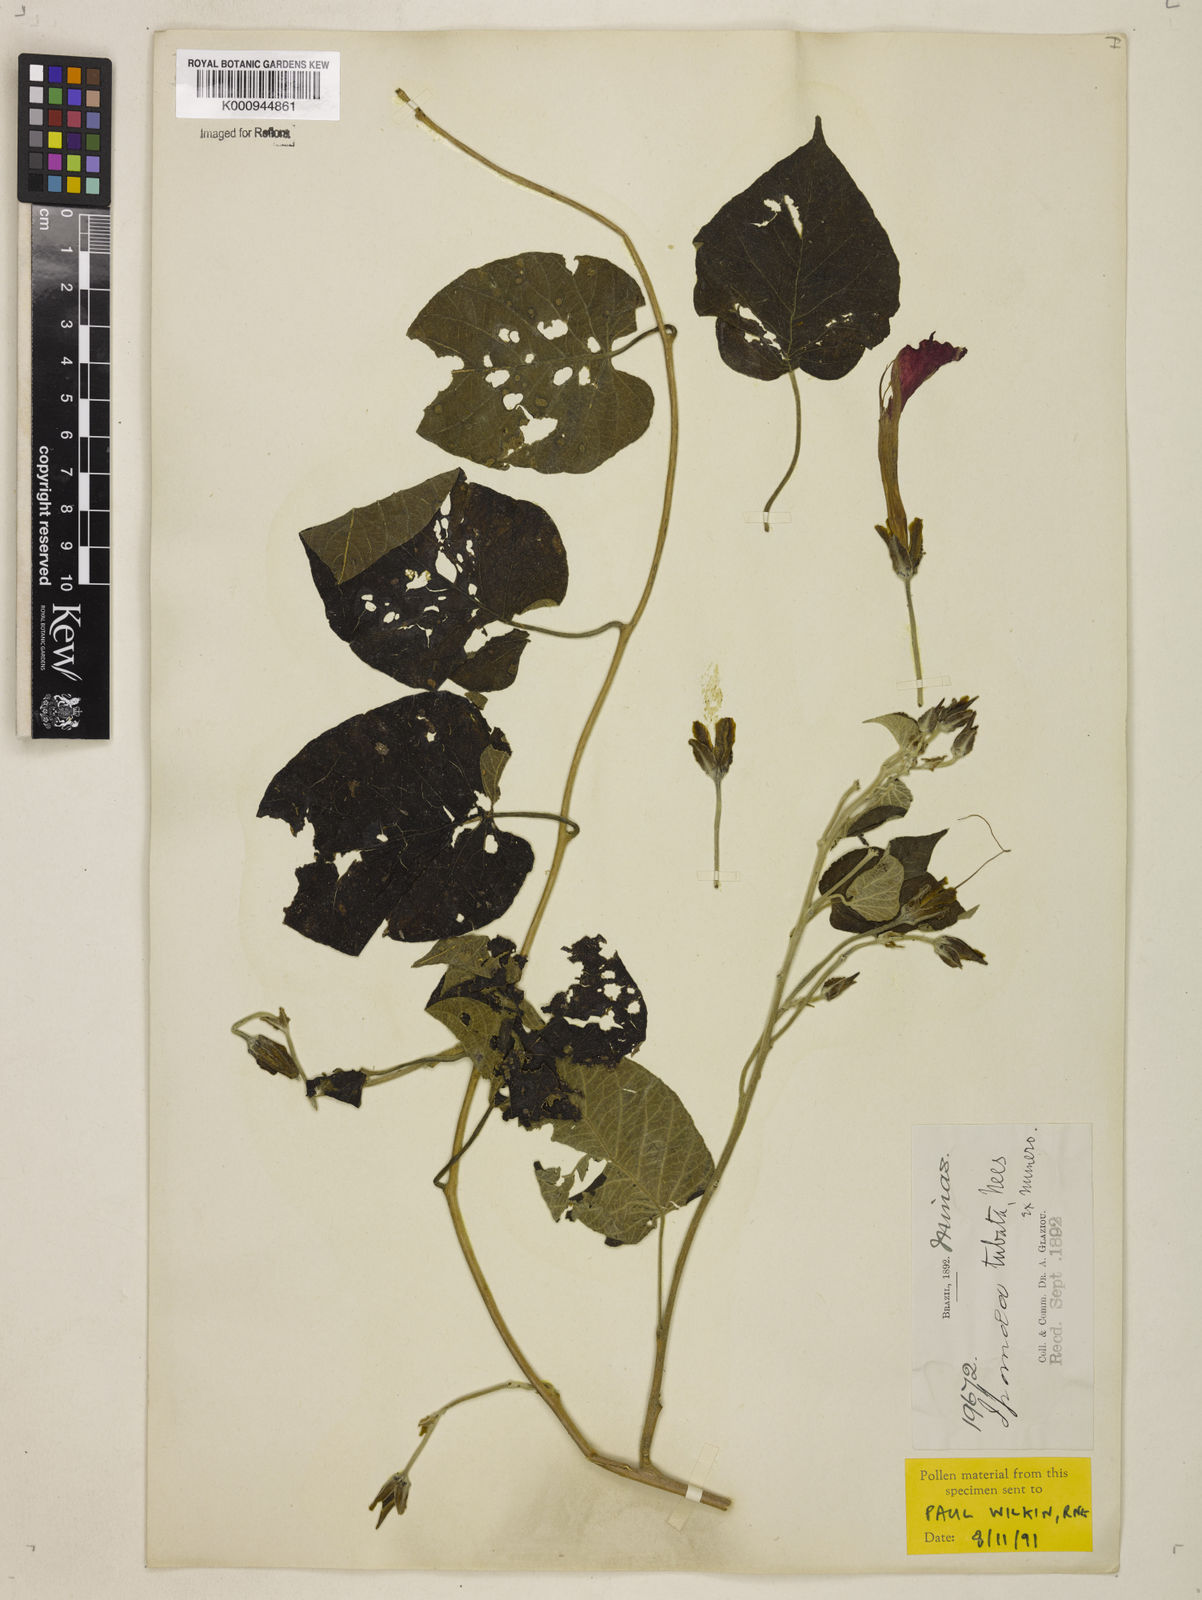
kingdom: Plantae
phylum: Tracheophyta
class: Magnoliopsida
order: Solanales
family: Convolvulaceae
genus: Ipomoea
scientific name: Ipomoea sidifolia
